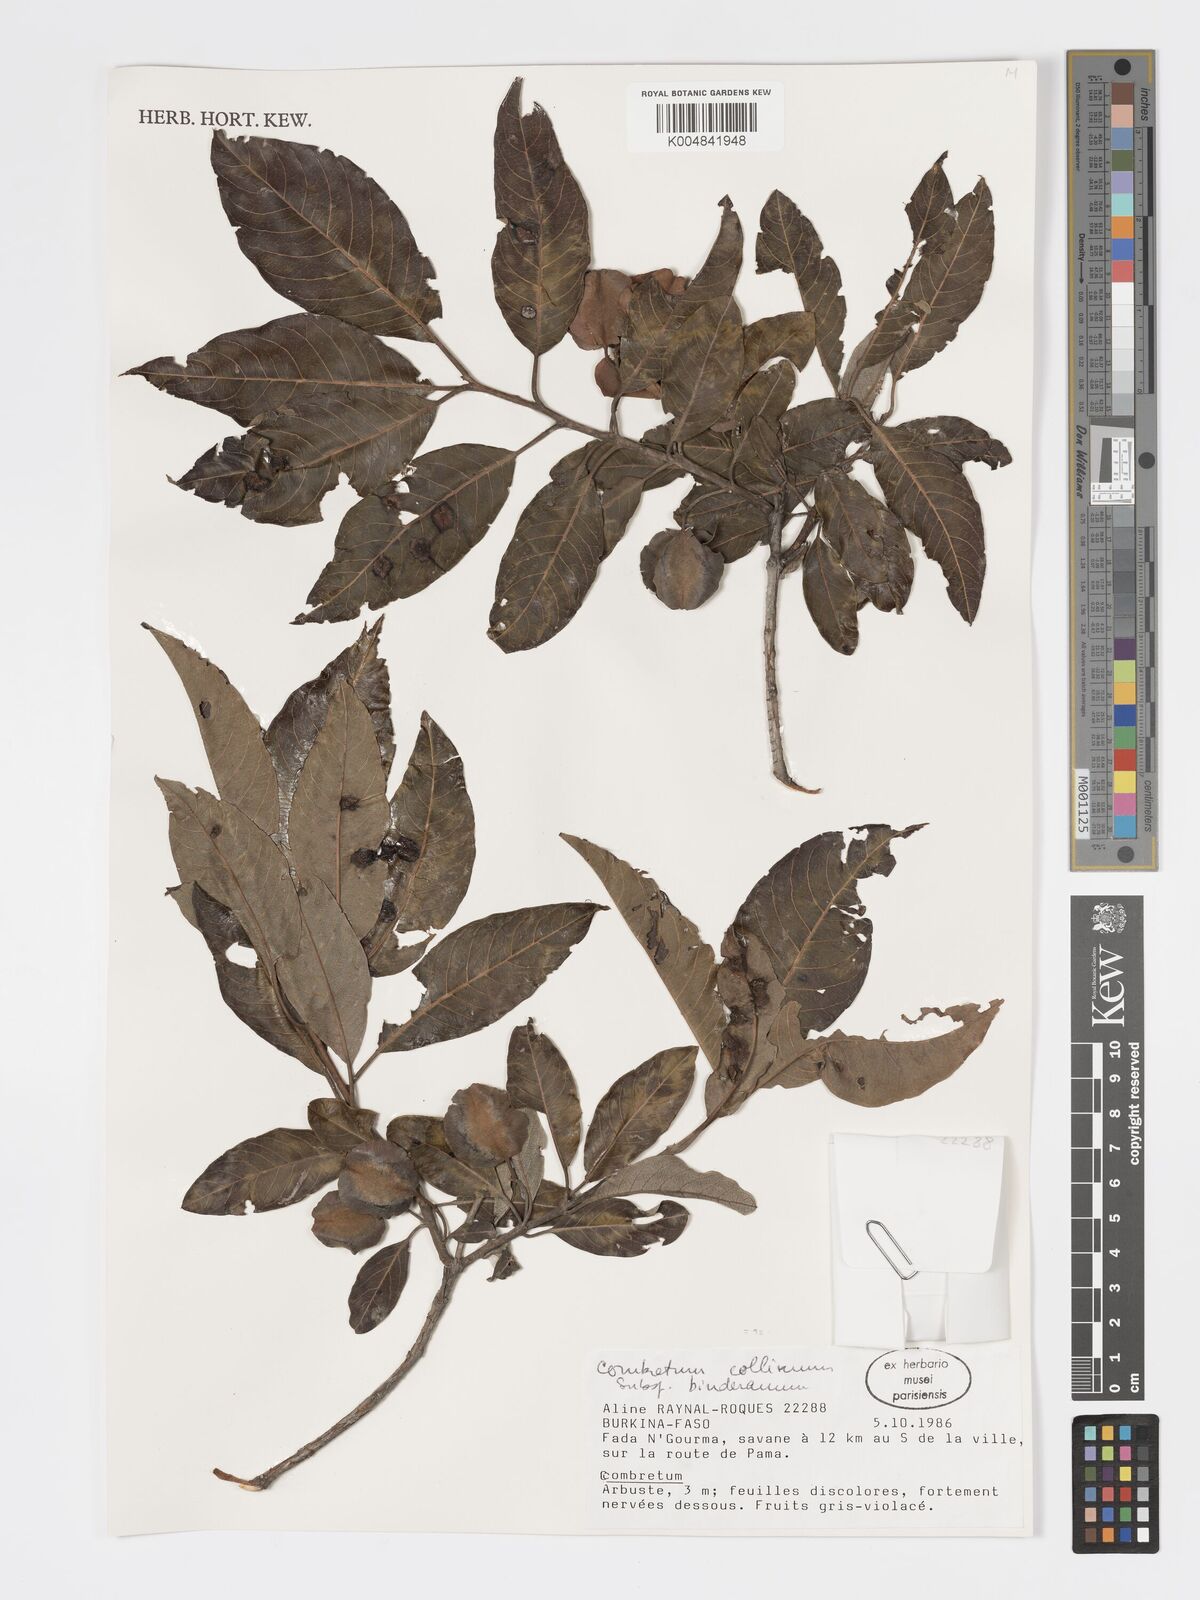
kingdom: Plantae
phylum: Tracheophyta
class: Magnoliopsida
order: Myrtales
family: Combretaceae
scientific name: Combretaceae
